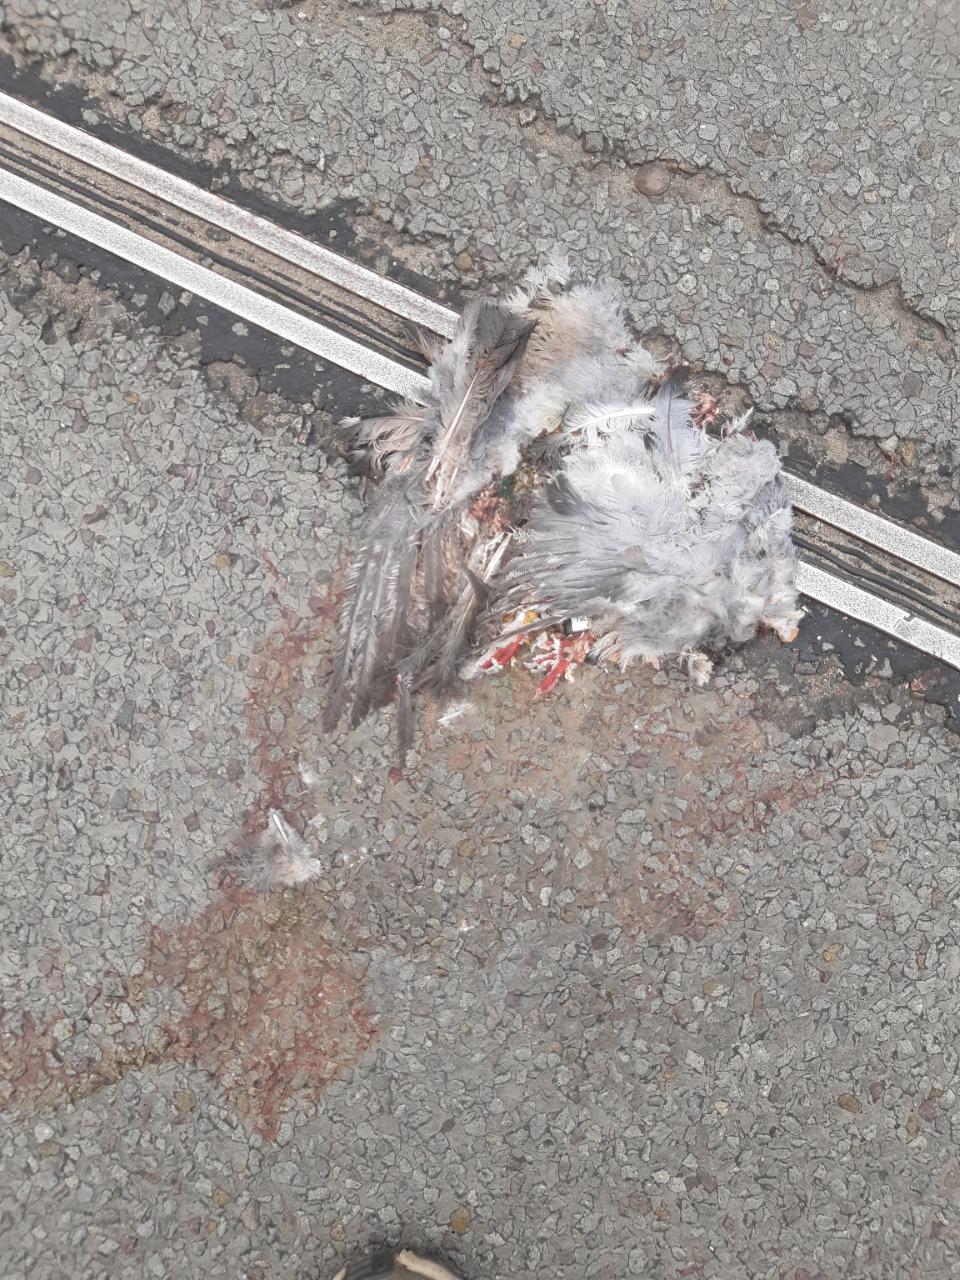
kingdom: Animalia
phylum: Chordata
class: Aves
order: Columbiformes
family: Columbidae
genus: Columba
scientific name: Columba livia
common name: Rock pigeon
